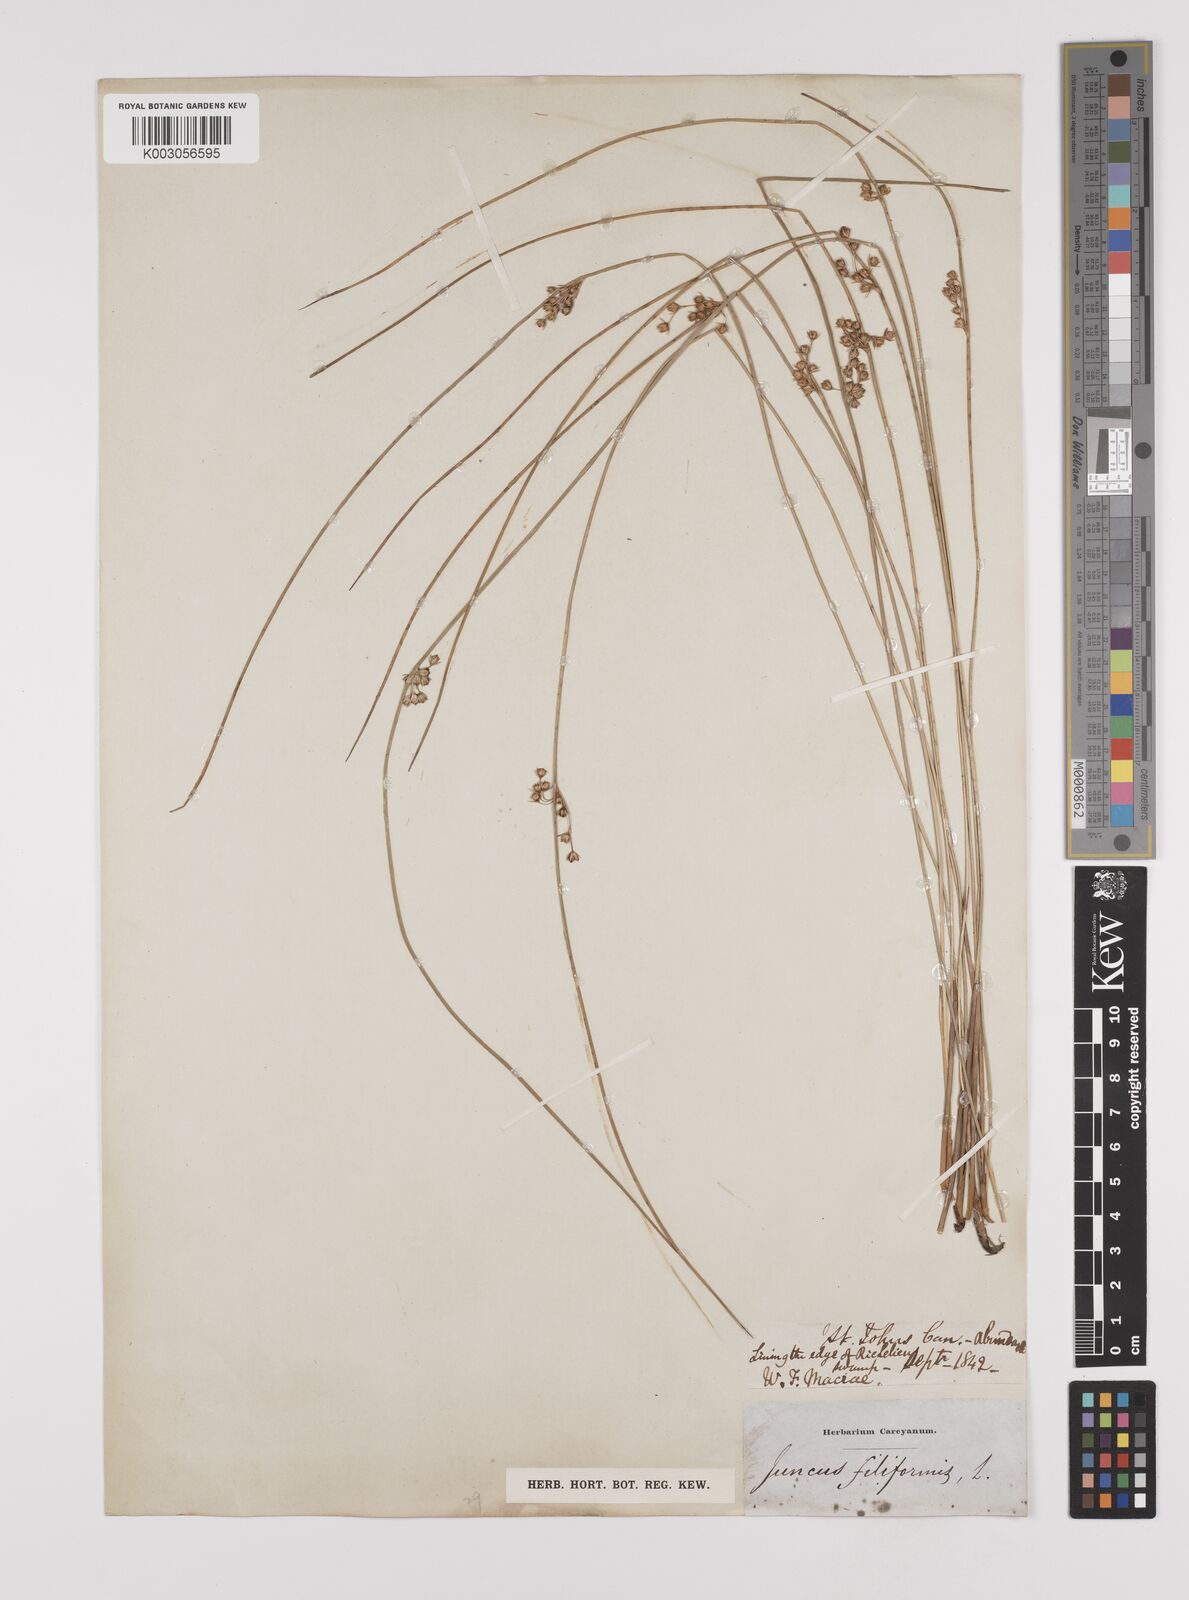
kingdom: Plantae
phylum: Tracheophyta
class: Liliopsida
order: Poales
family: Juncaceae
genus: Juncus
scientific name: Juncus filiformis
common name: Thread rush
